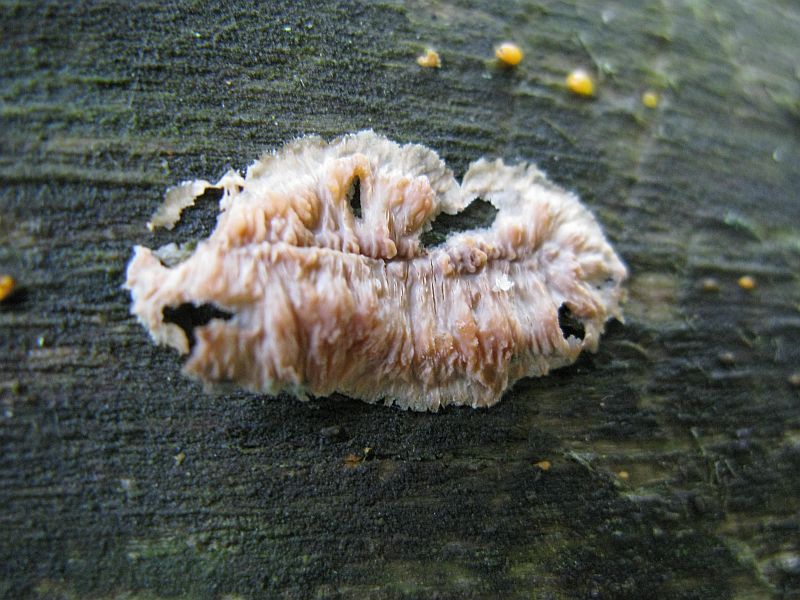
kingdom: Fungi
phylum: Basidiomycota
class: Agaricomycetes
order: Polyporales
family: Meruliaceae
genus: Phlebia
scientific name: Phlebia radiata
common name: stråle-åresvamp
